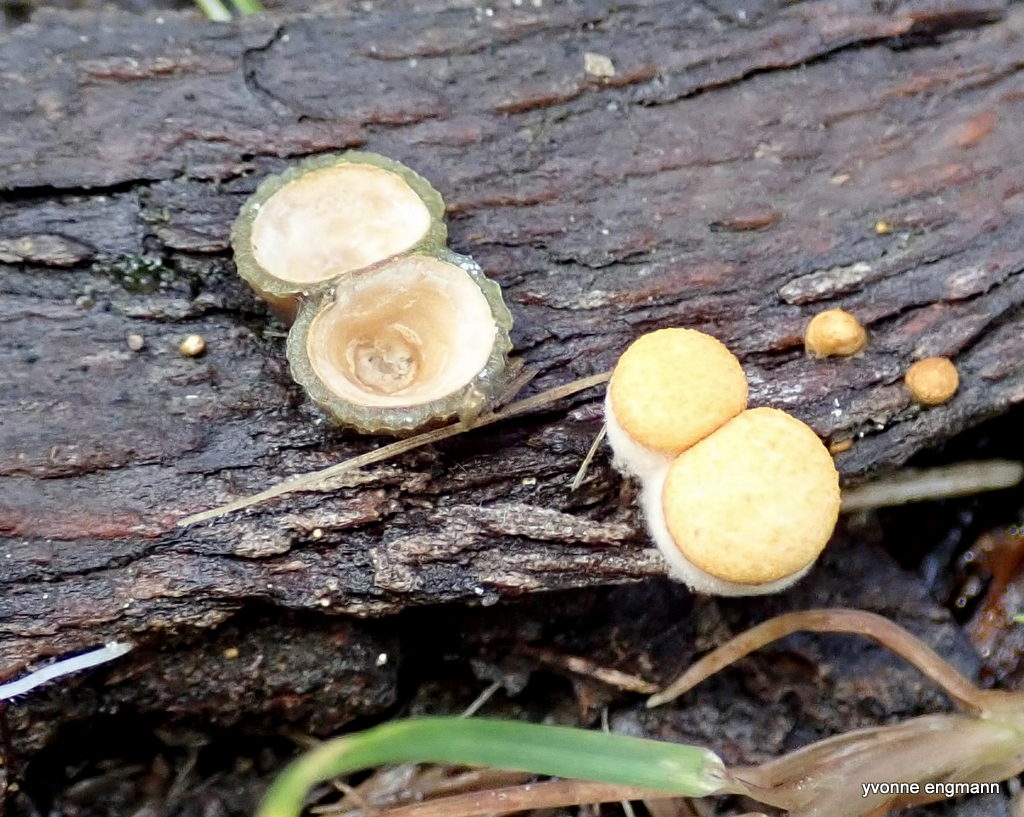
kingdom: Fungi
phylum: Basidiomycota
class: Agaricomycetes
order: Agaricales
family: Nidulariaceae
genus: Crucibulum
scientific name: Crucibulum crucibuliforme
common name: krukkesvamp
